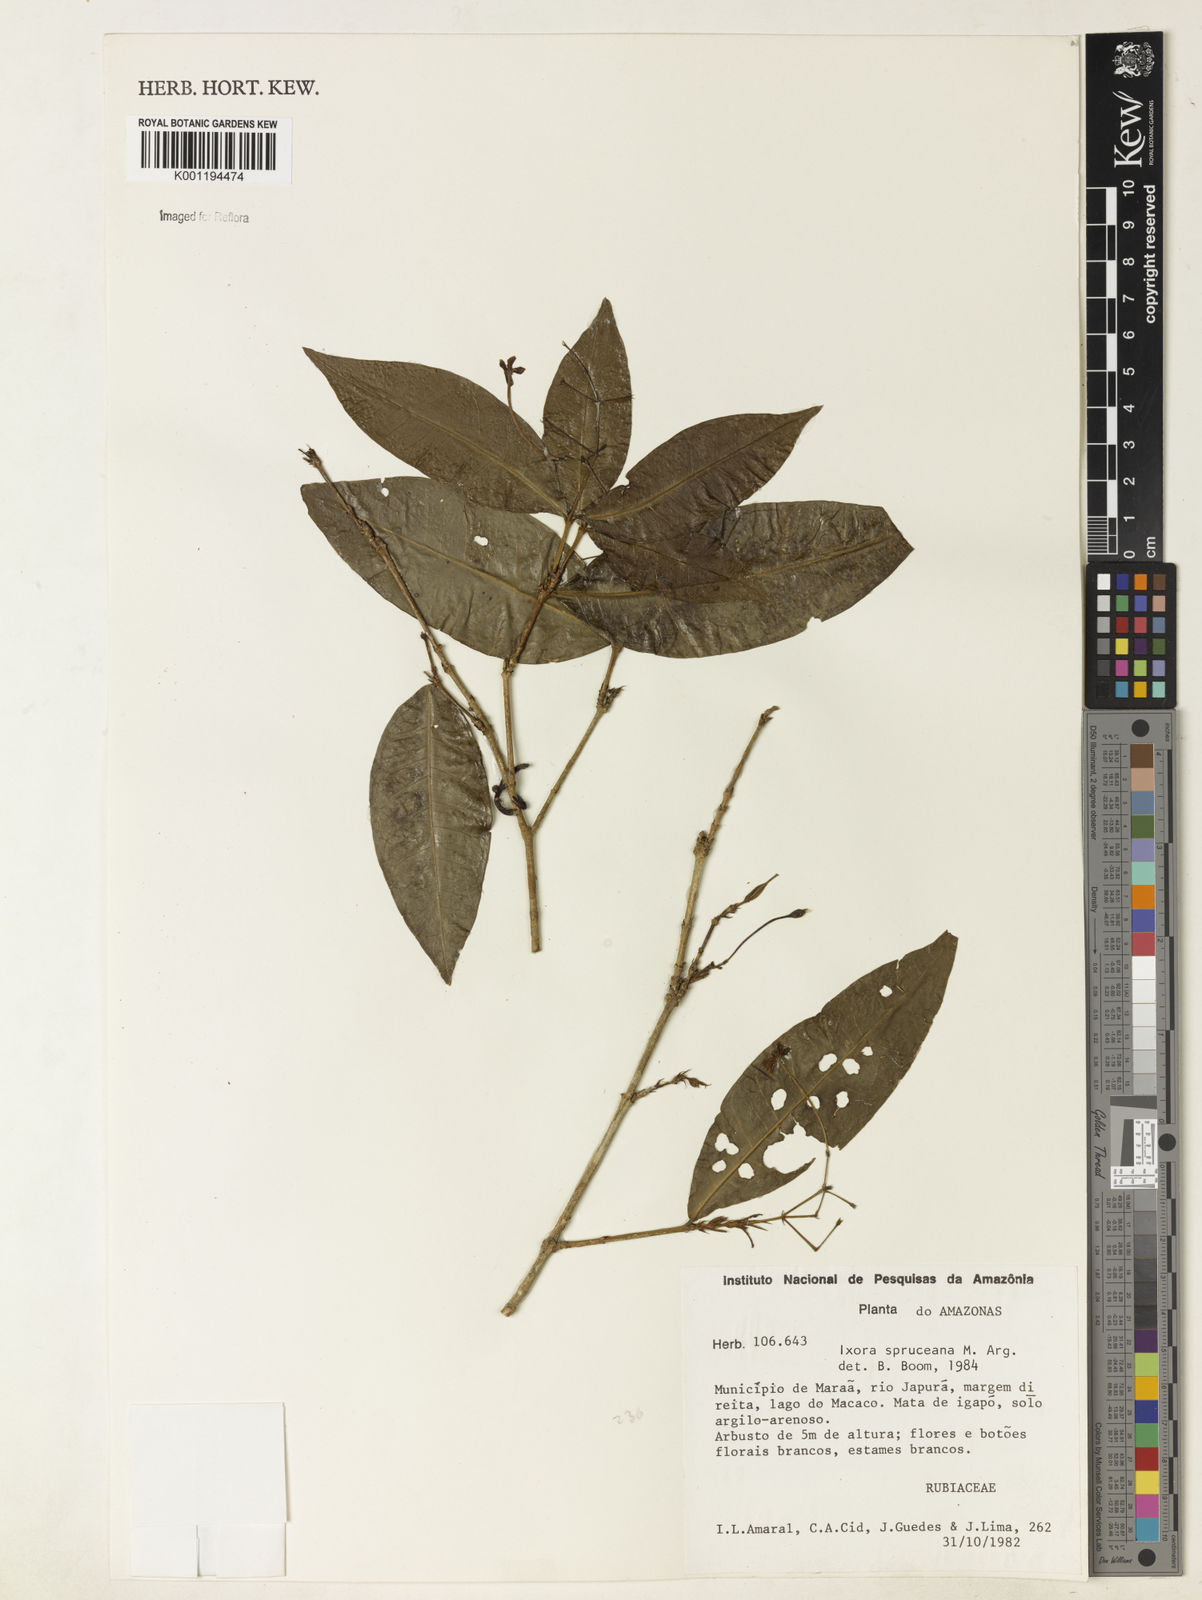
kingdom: Plantae
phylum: Tracheophyta
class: Magnoliopsida
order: Gentianales
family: Rubiaceae
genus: Ixora
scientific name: Ixora
